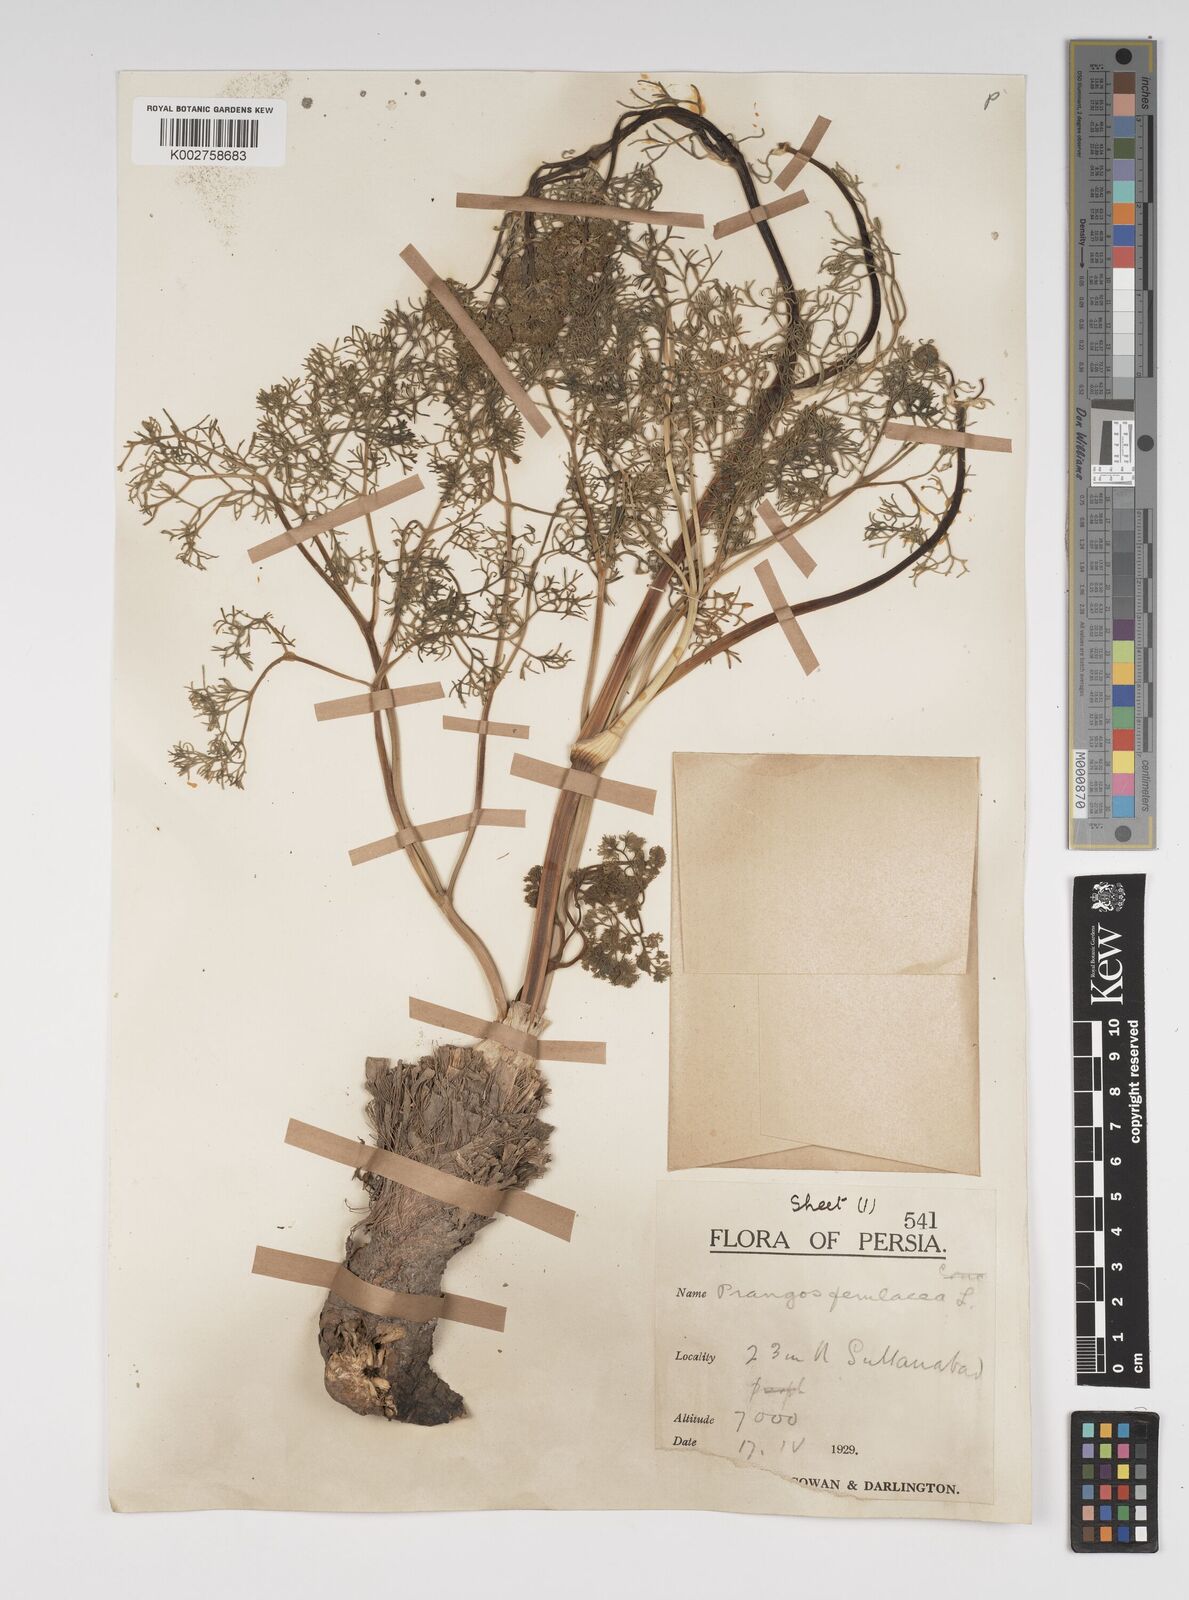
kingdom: Plantae
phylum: Tracheophyta
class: Magnoliopsida
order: Apiales
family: Apiaceae
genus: Prangos
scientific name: Prangos ferulacea
